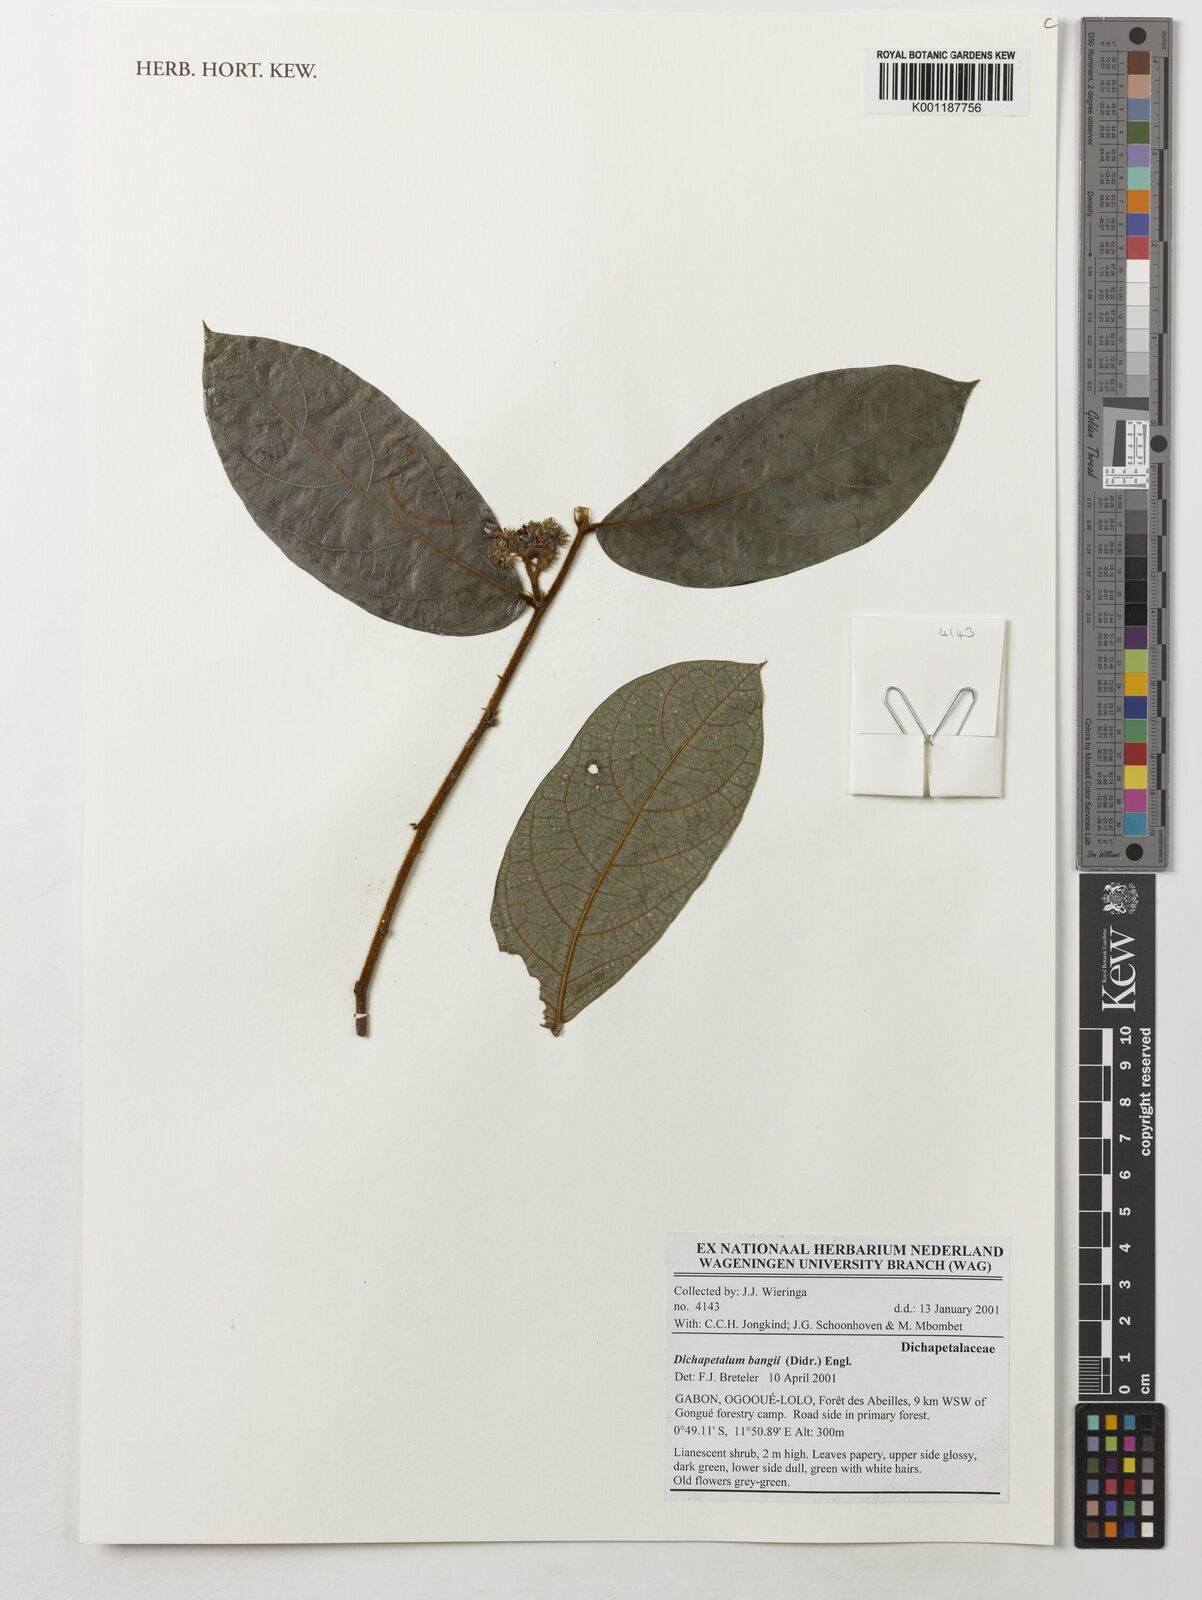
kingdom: Plantae
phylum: Tracheophyta
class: Magnoliopsida
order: Malpighiales
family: Dichapetalaceae
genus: Dichapetalum
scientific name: Dichapetalum bangii
